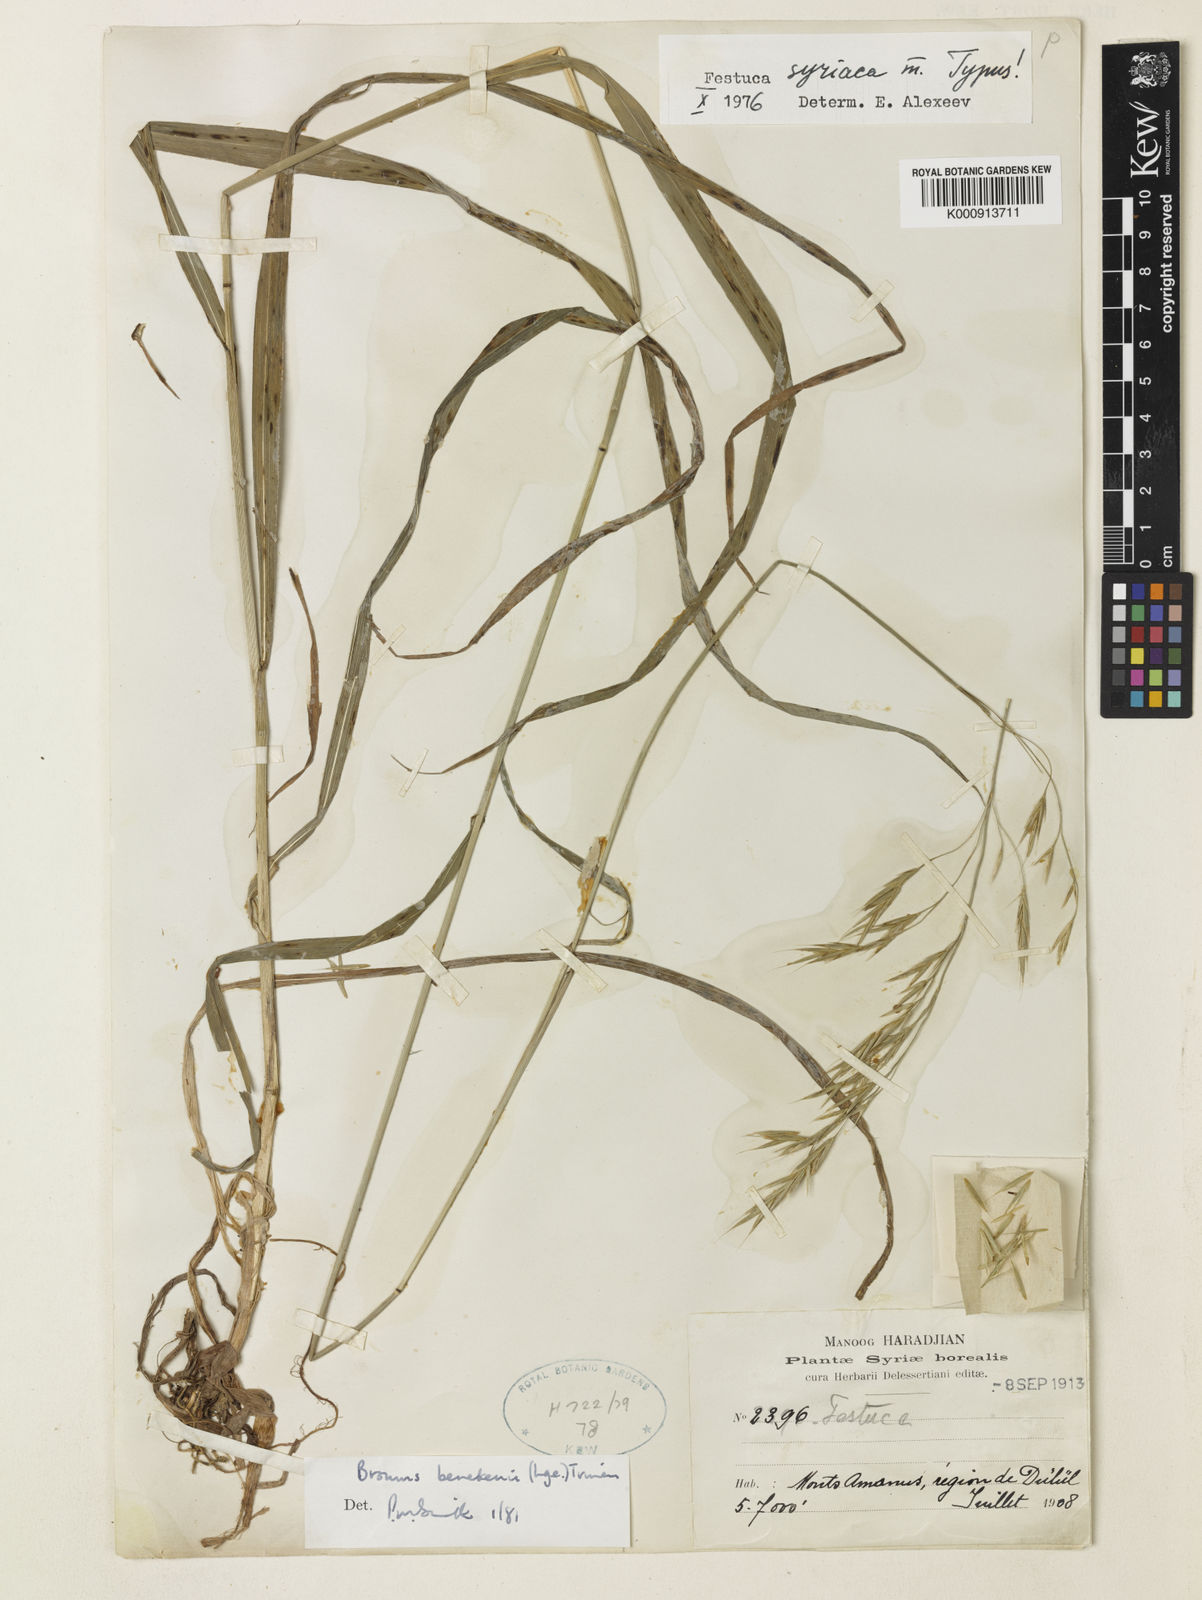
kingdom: Plantae
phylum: Tracheophyta
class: Liliopsida
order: Poales
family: Poaceae
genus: Bromus
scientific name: Bromus benekenii
